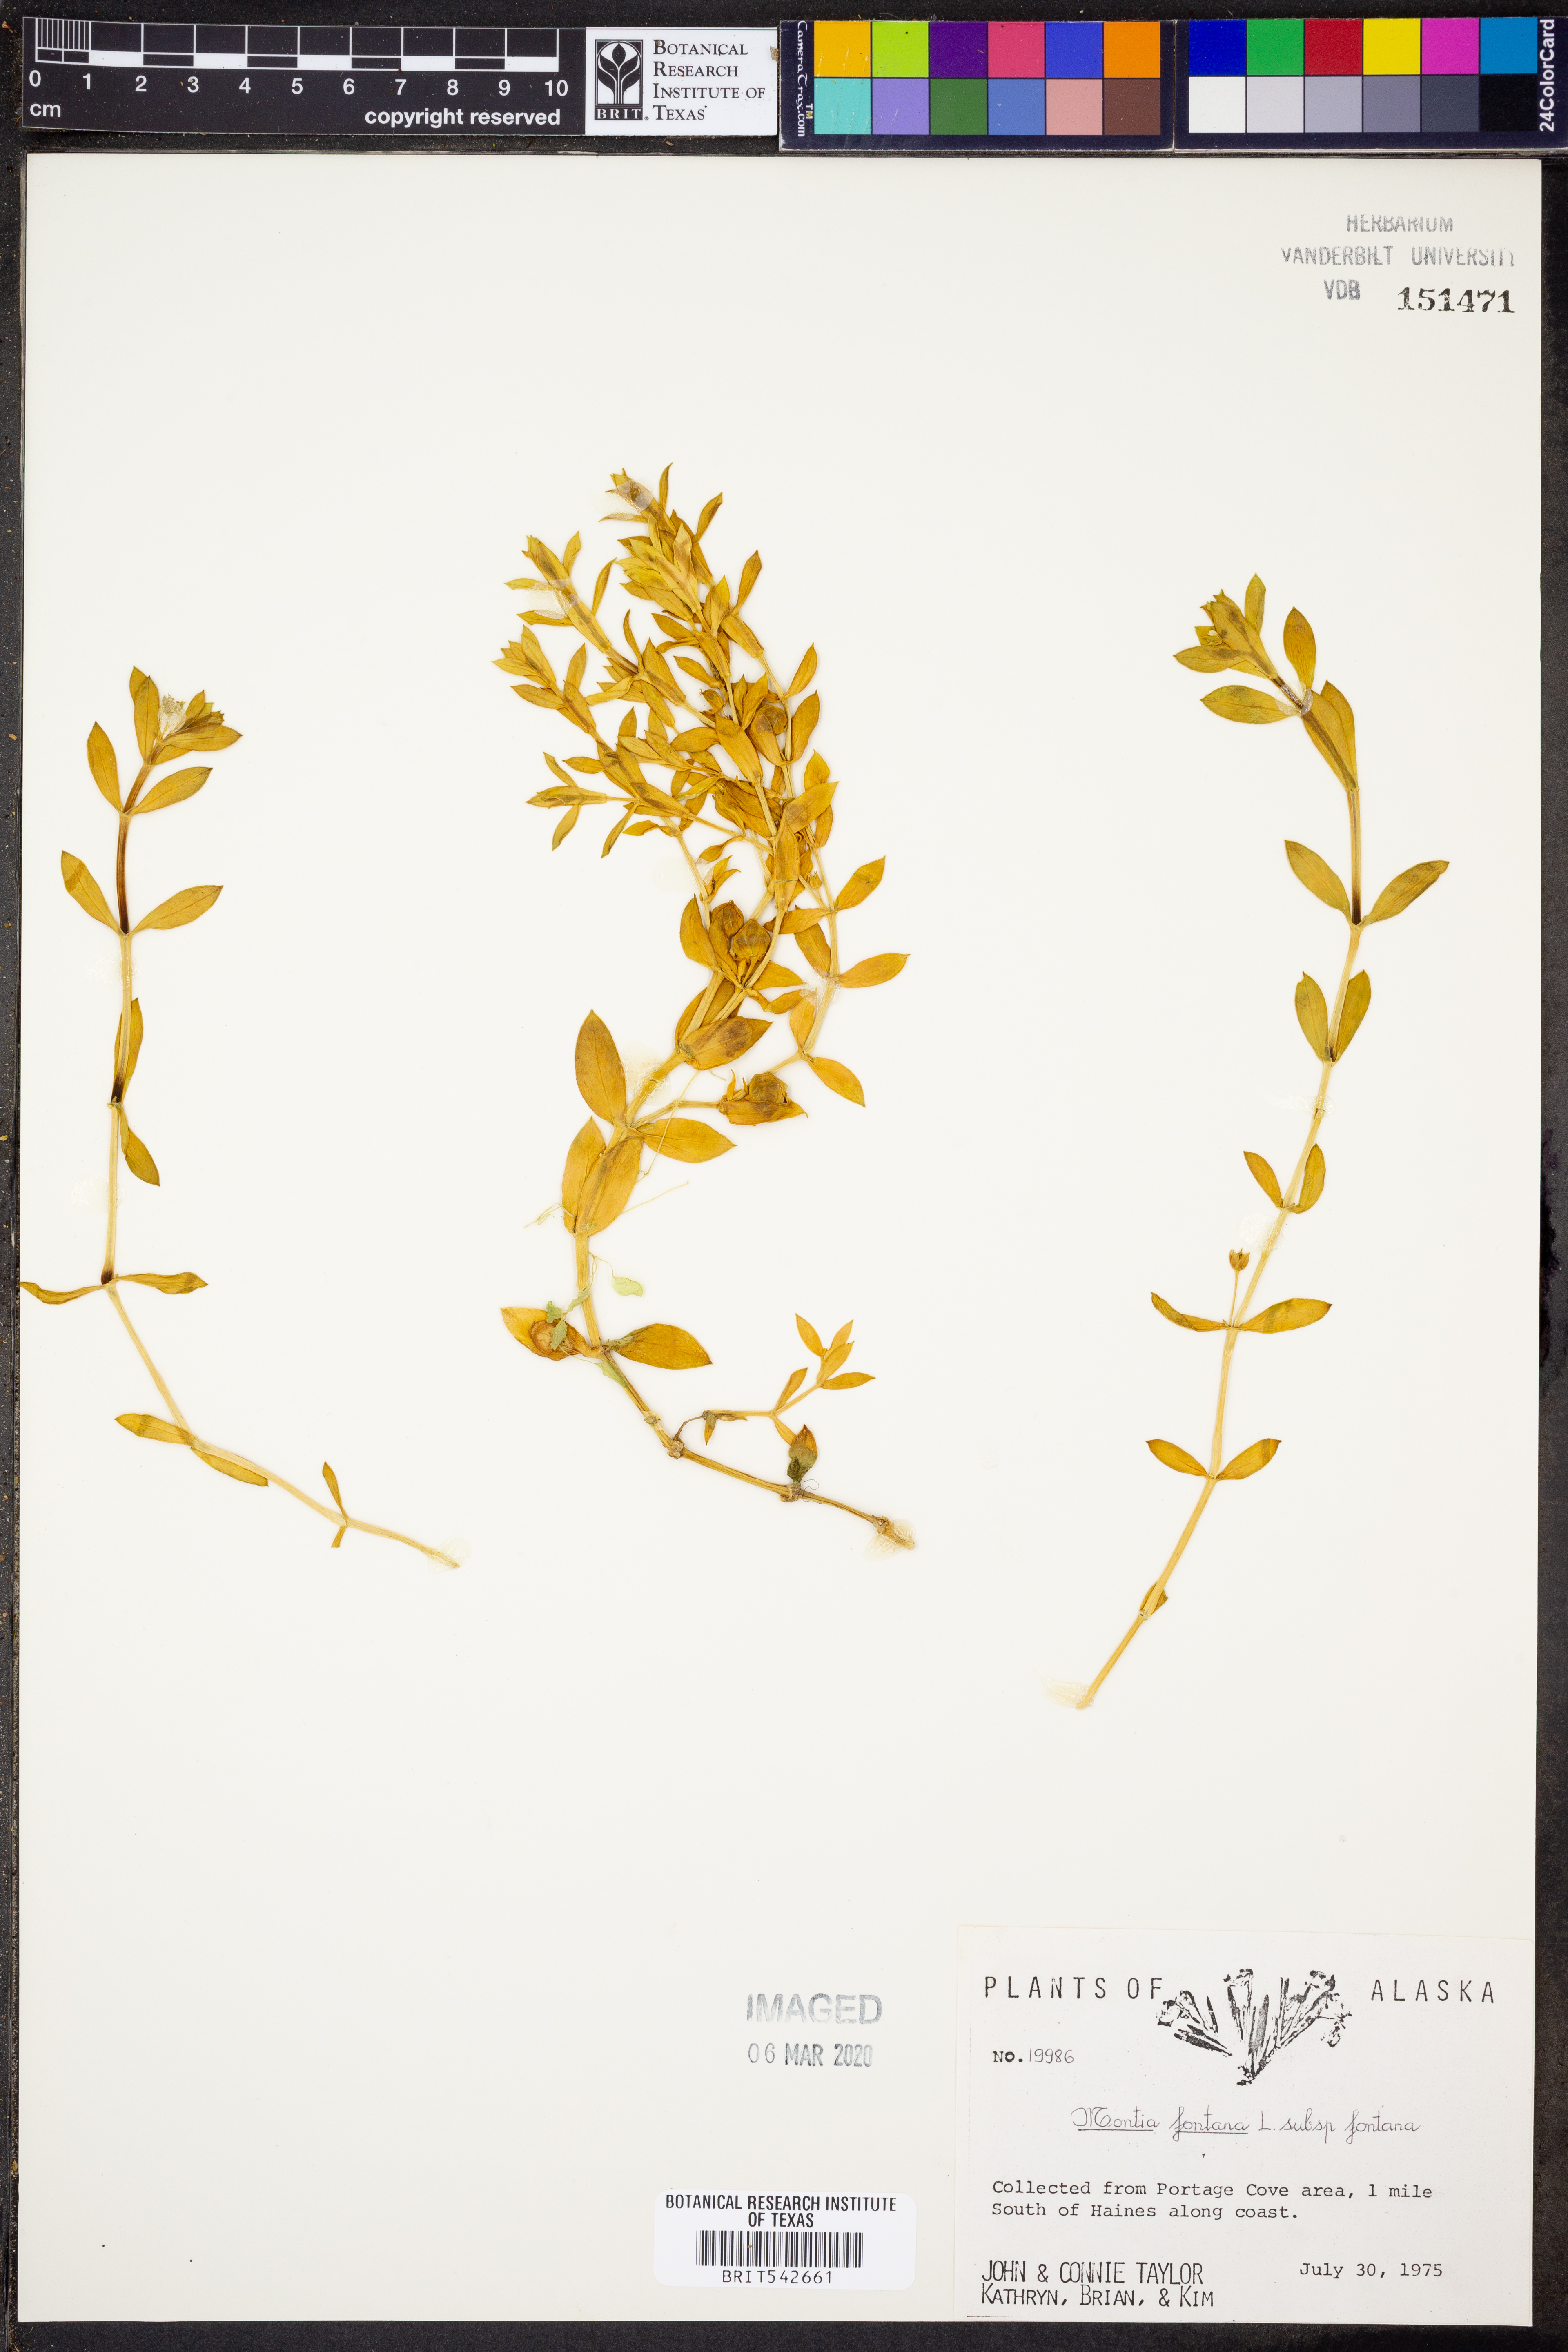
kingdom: Plantae
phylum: Tracheophyta
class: Magnoliopsida
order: Caryophyllales
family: Montiaceae
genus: Montia
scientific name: Montia fontana
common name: Blinks
